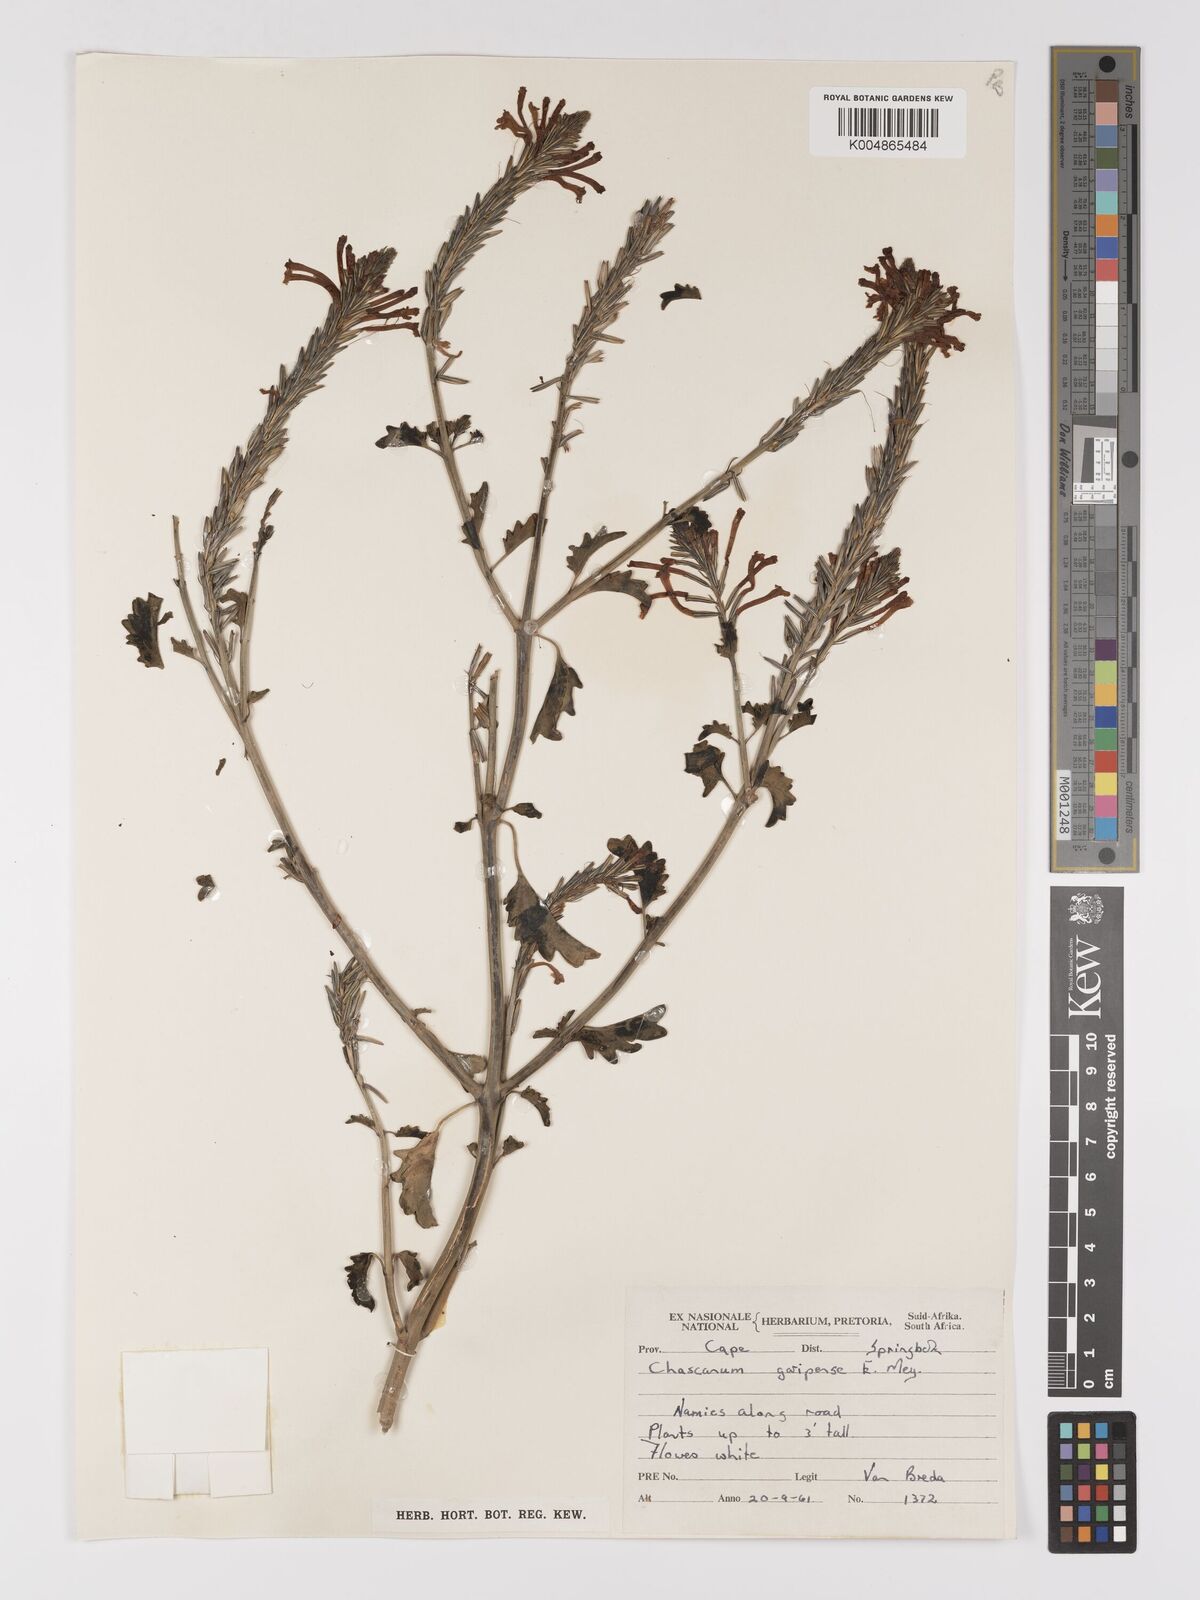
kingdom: Plantae
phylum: Tracheophyta
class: Magnoliopsida
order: Lamiales
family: Verbenaceae
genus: Chascanum
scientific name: Chascanum garipense
